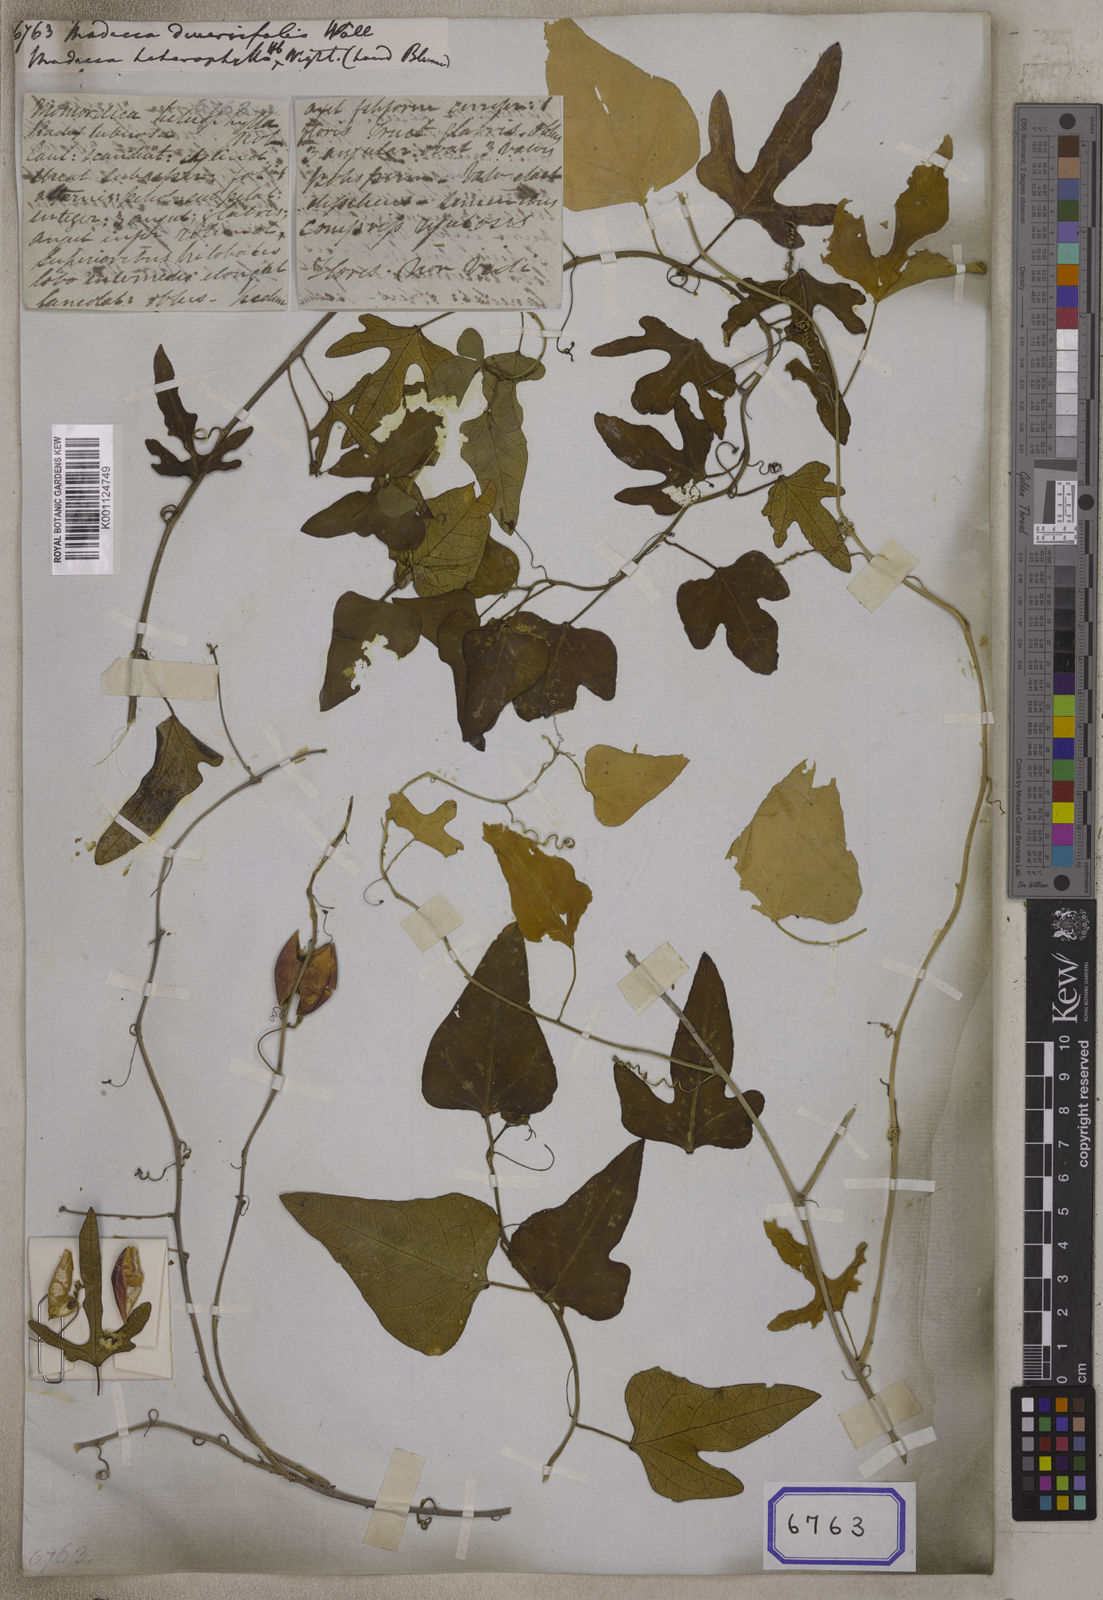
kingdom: Plantae
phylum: Tracheophyta
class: Magnoliopsida
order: Malpighiales
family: Passifloraceae
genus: Adenia
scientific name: Adenia
